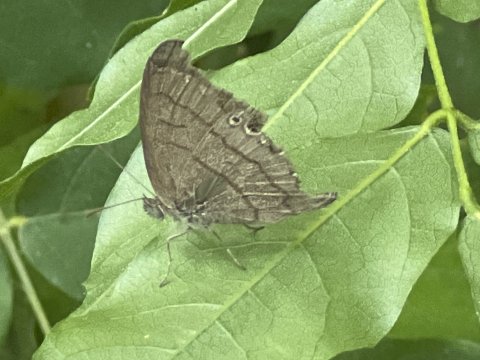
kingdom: Animalia
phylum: Arthropoda
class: Insecta
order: Lepidoptera
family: Nymphalidae
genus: Hermeuptychia
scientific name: Hermeuptychia hermes
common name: Carolina Satyr
